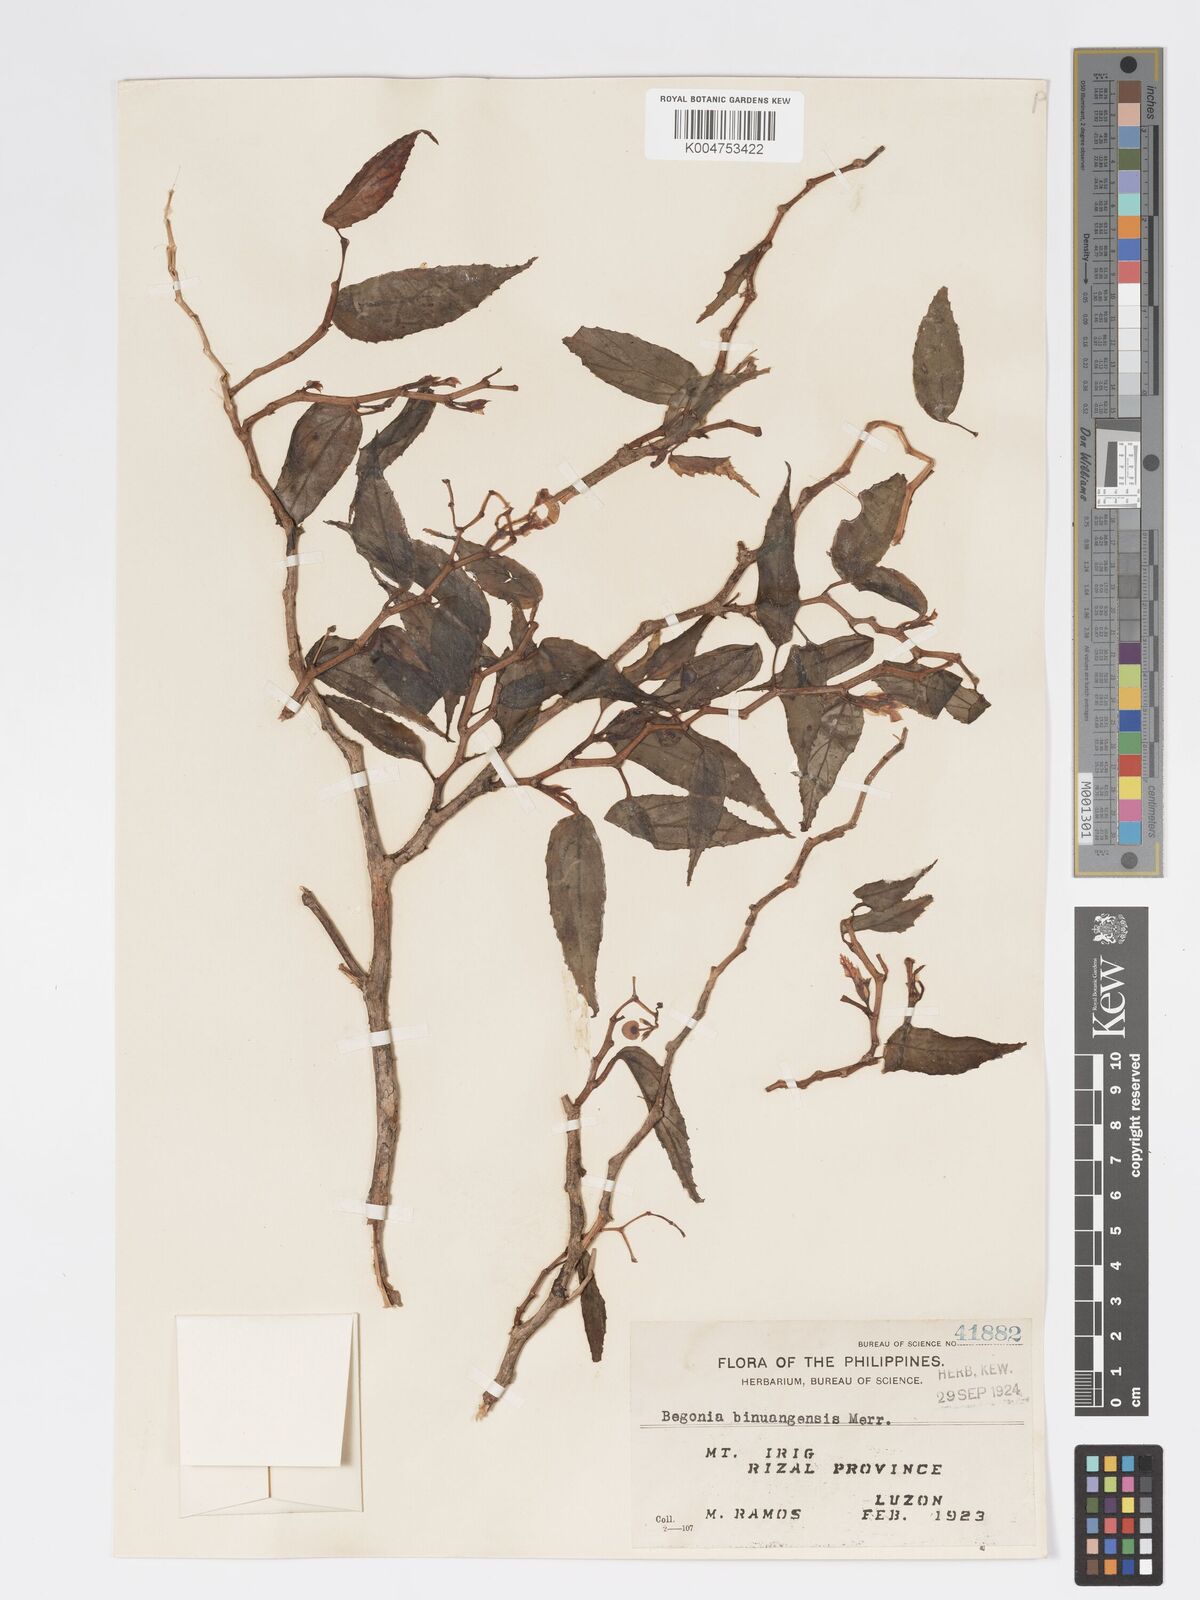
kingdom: Plantae
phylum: Tracheophyta
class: Magnoliopsida
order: Cucurbitales
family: Begoniaceae
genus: Begonia
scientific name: Begonia binuangensis
